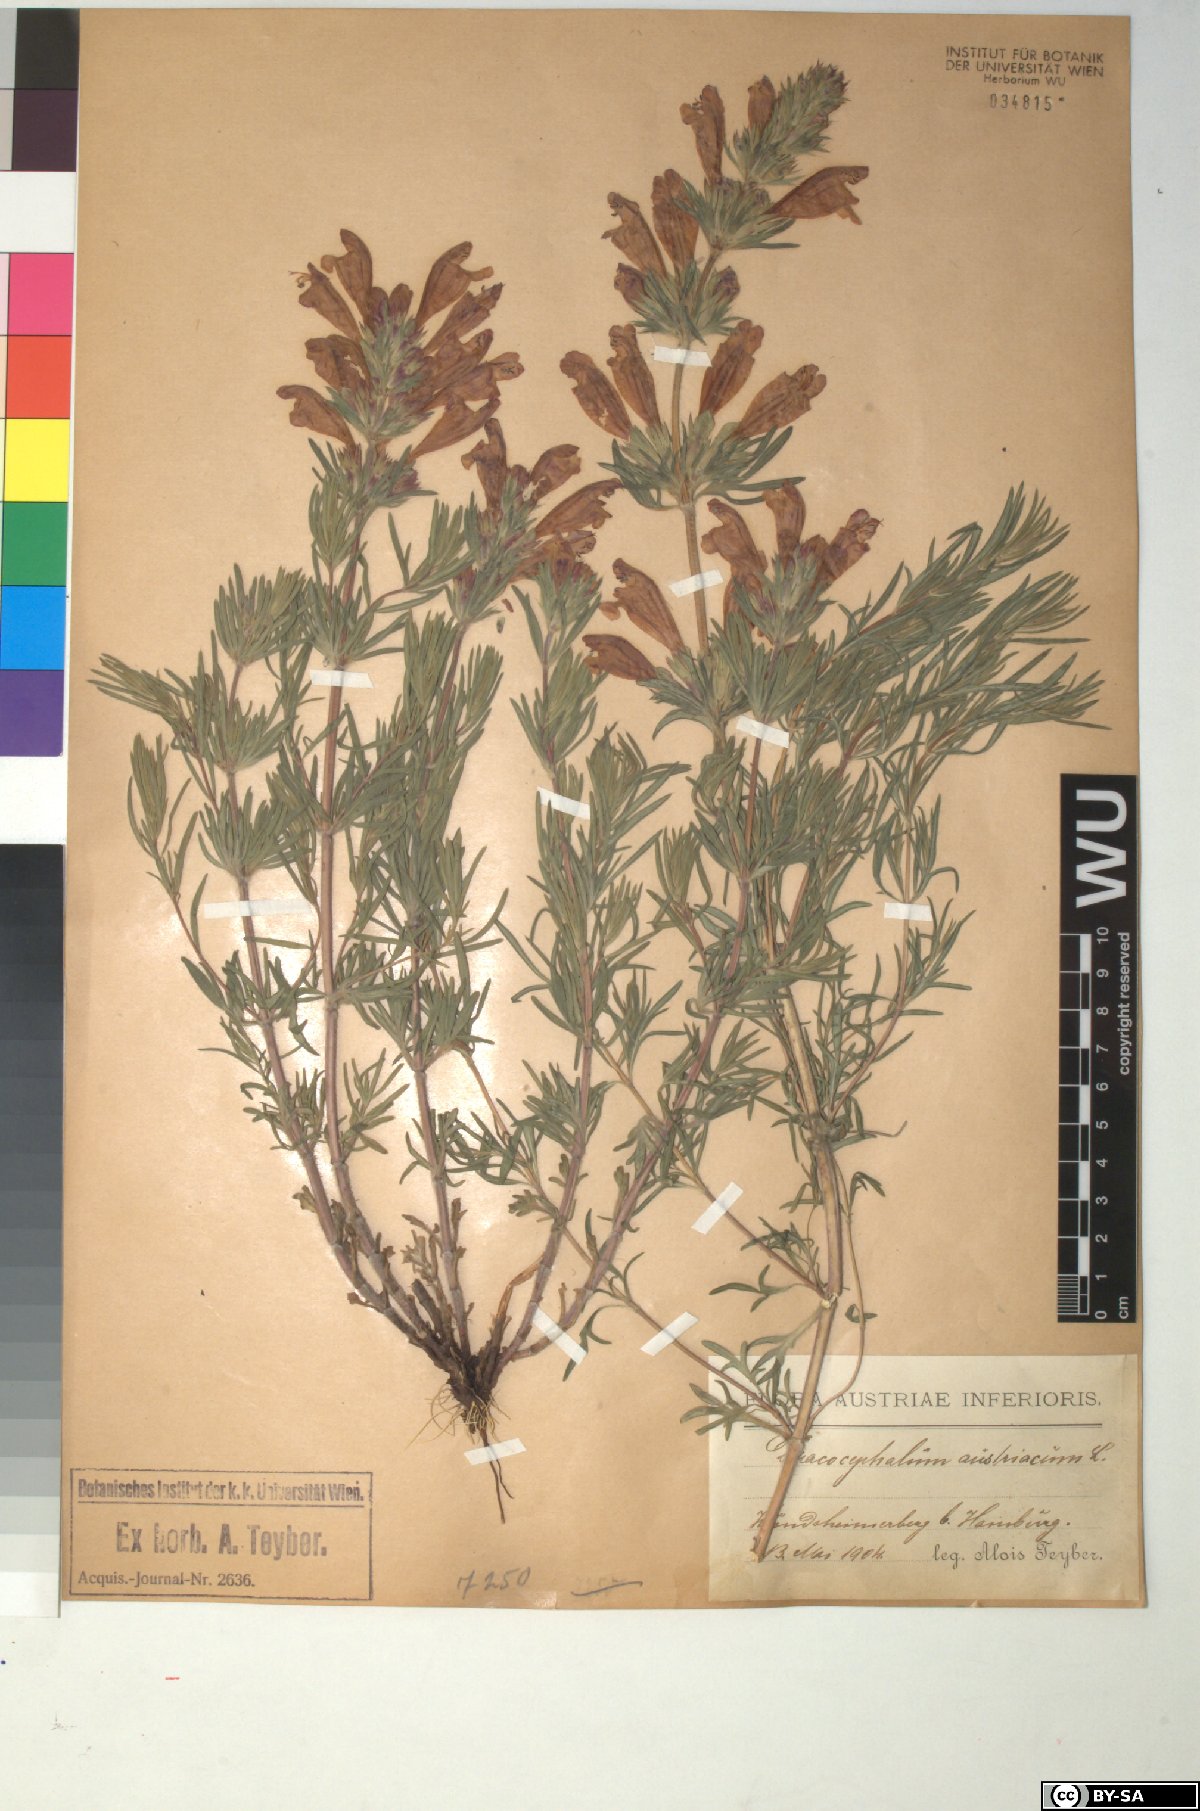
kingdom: Plantae
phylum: Tracheophyta
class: Magnoliopsida
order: Lamiales
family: Lamiaceae
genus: Dracocephalum
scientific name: Dracocephalum austriacum
